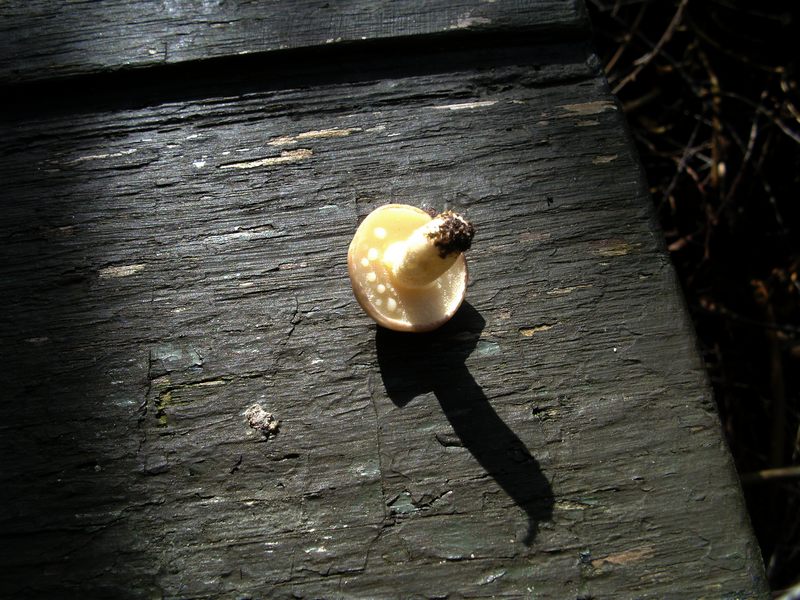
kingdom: Fungi
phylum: Basidiomycota
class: Agaricomycetes
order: Boletales
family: Suillaceae
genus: Suillus
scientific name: Suillus granulatus
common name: kornet slimrørhat
